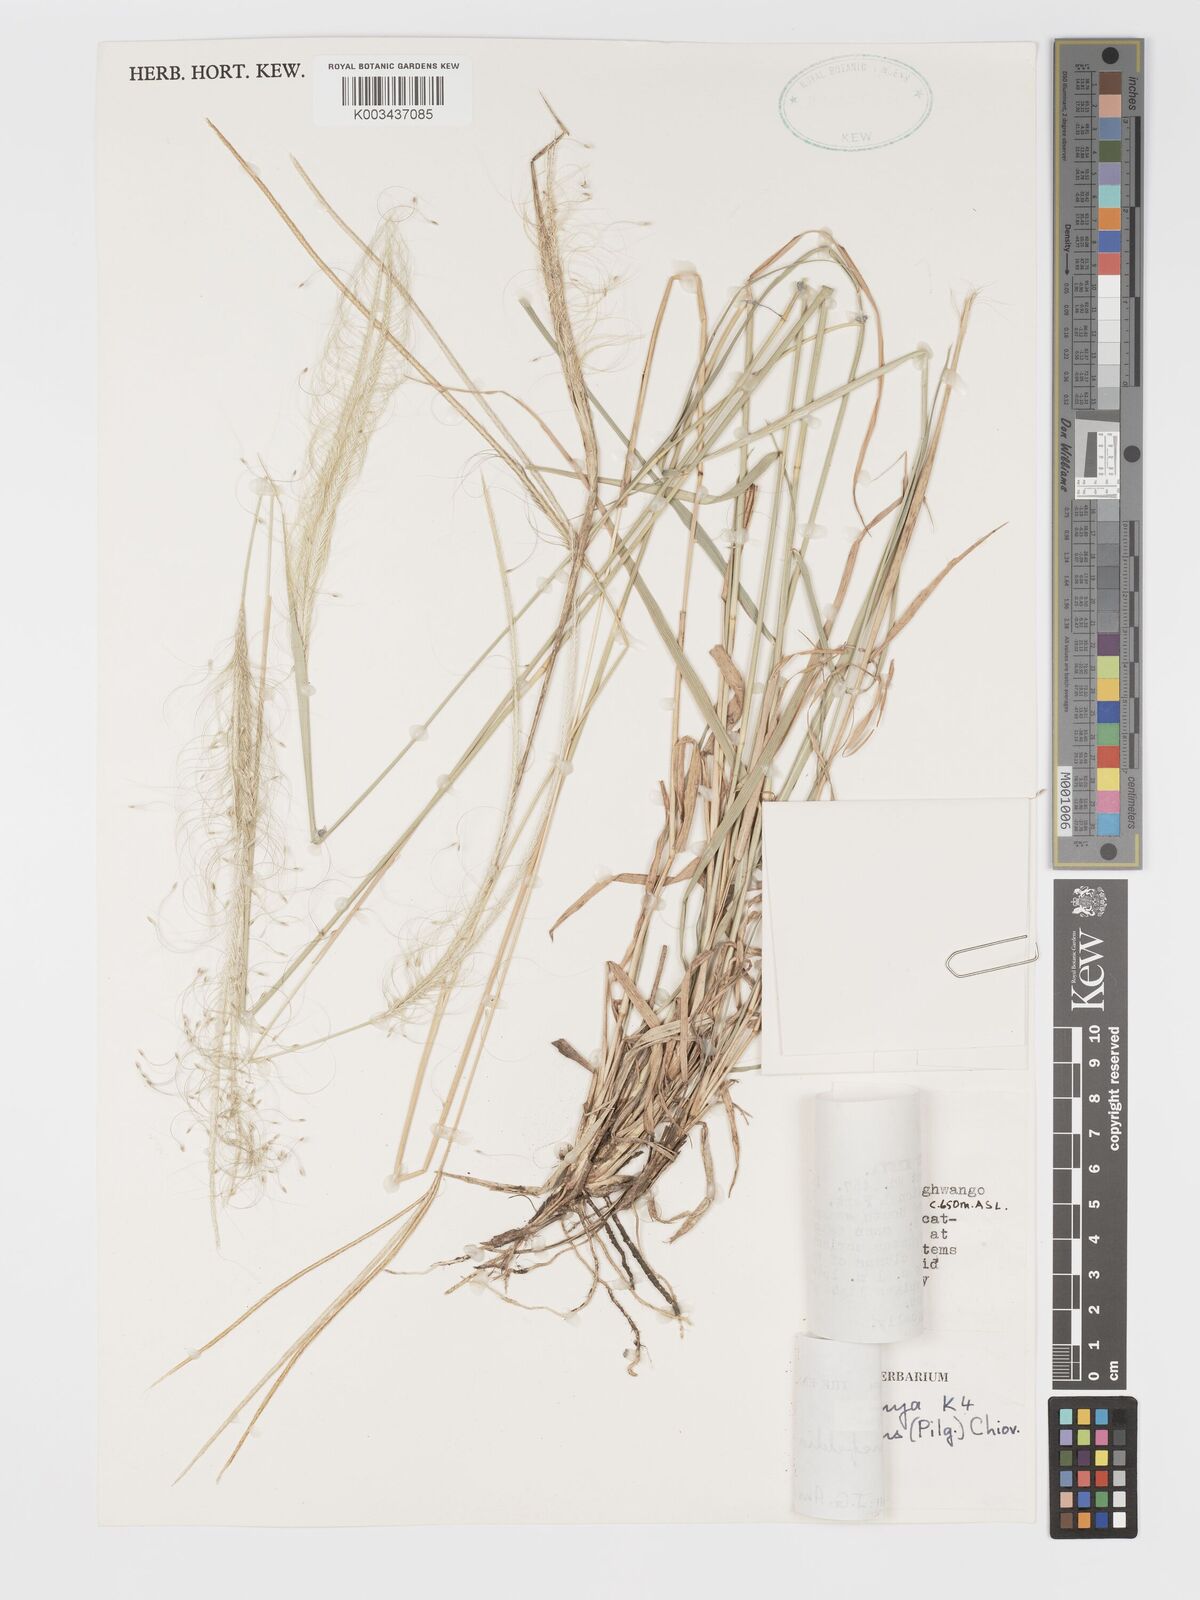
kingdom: Plantae
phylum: Tracheophyta
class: Liliopsida
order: Poales
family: Poaceae
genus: Schoenefeldia
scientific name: Schoenefeldia transiens
